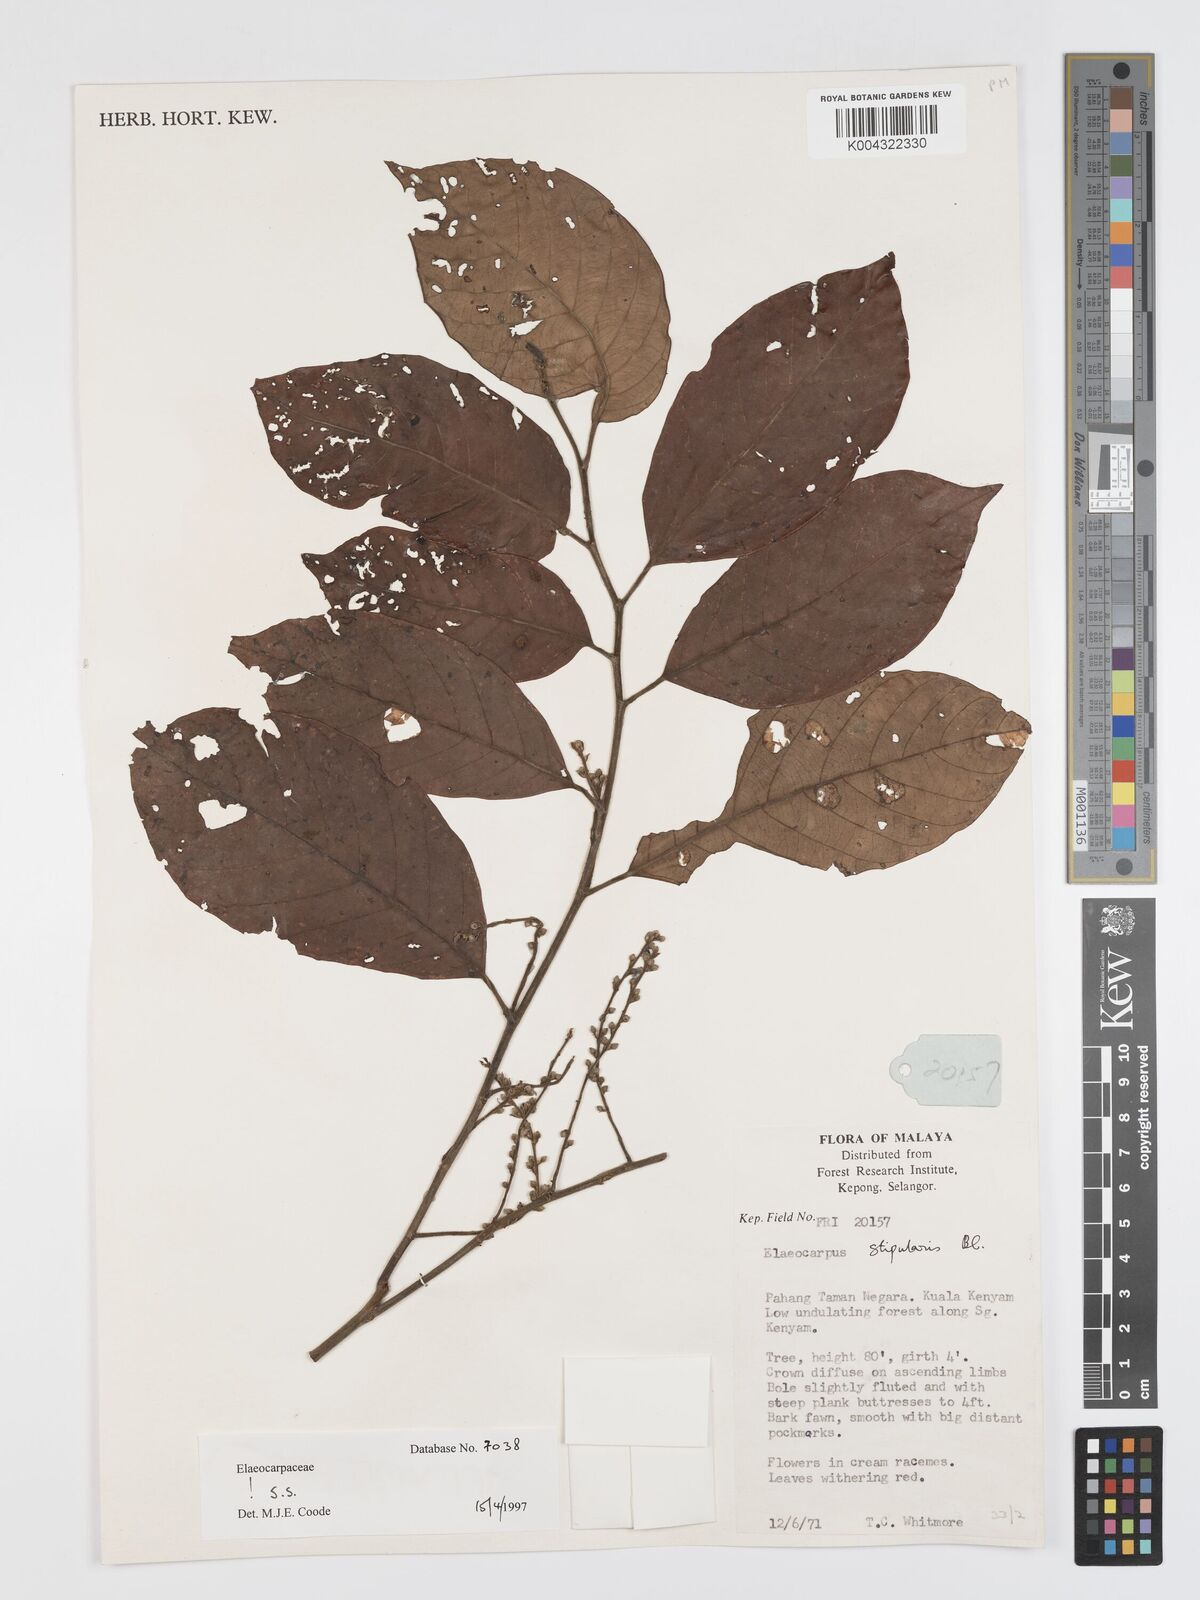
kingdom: Plantae
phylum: Tracheophyta
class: Magnoliopsida
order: Oxalidales
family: Elaeocarpaceae
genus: Elaeocarpus
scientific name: Elaeocarpus stipularis
